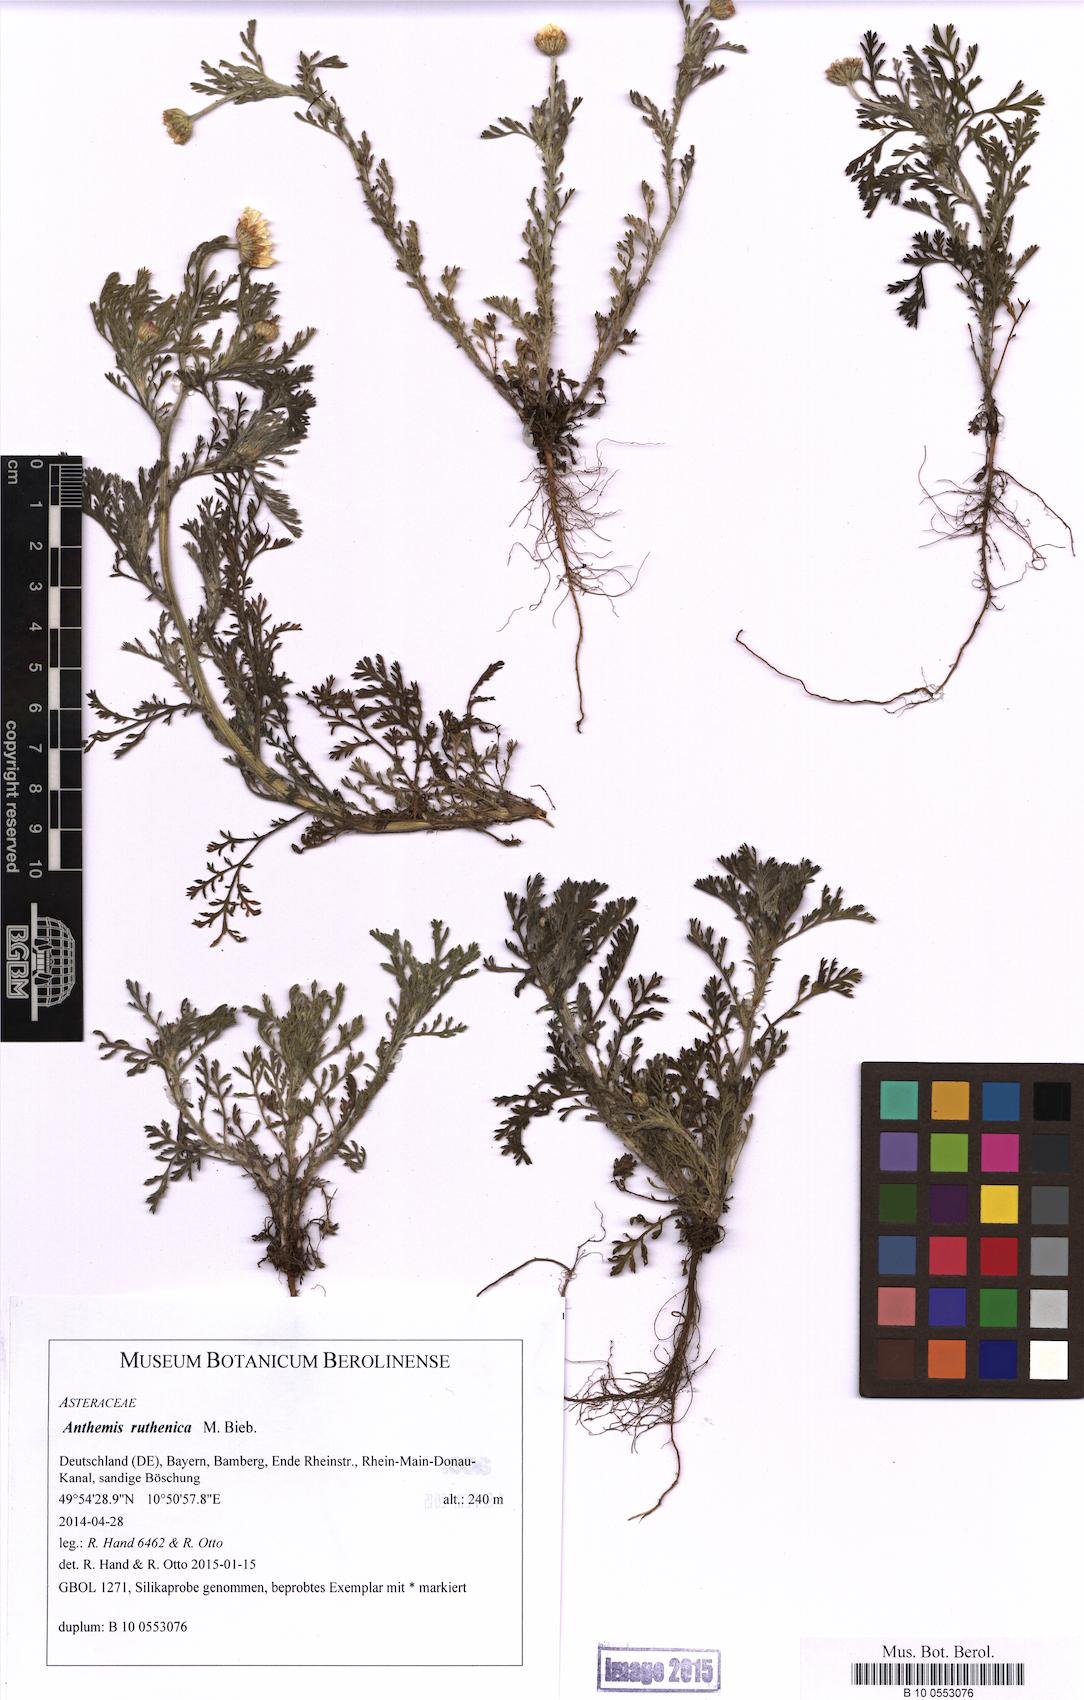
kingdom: Plantae
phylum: Tracheophyta
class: Magnoliopsida
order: Asterales
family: Asteraceae
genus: Anthemis
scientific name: Anthemis ruthenica
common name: Eastern chamomile
